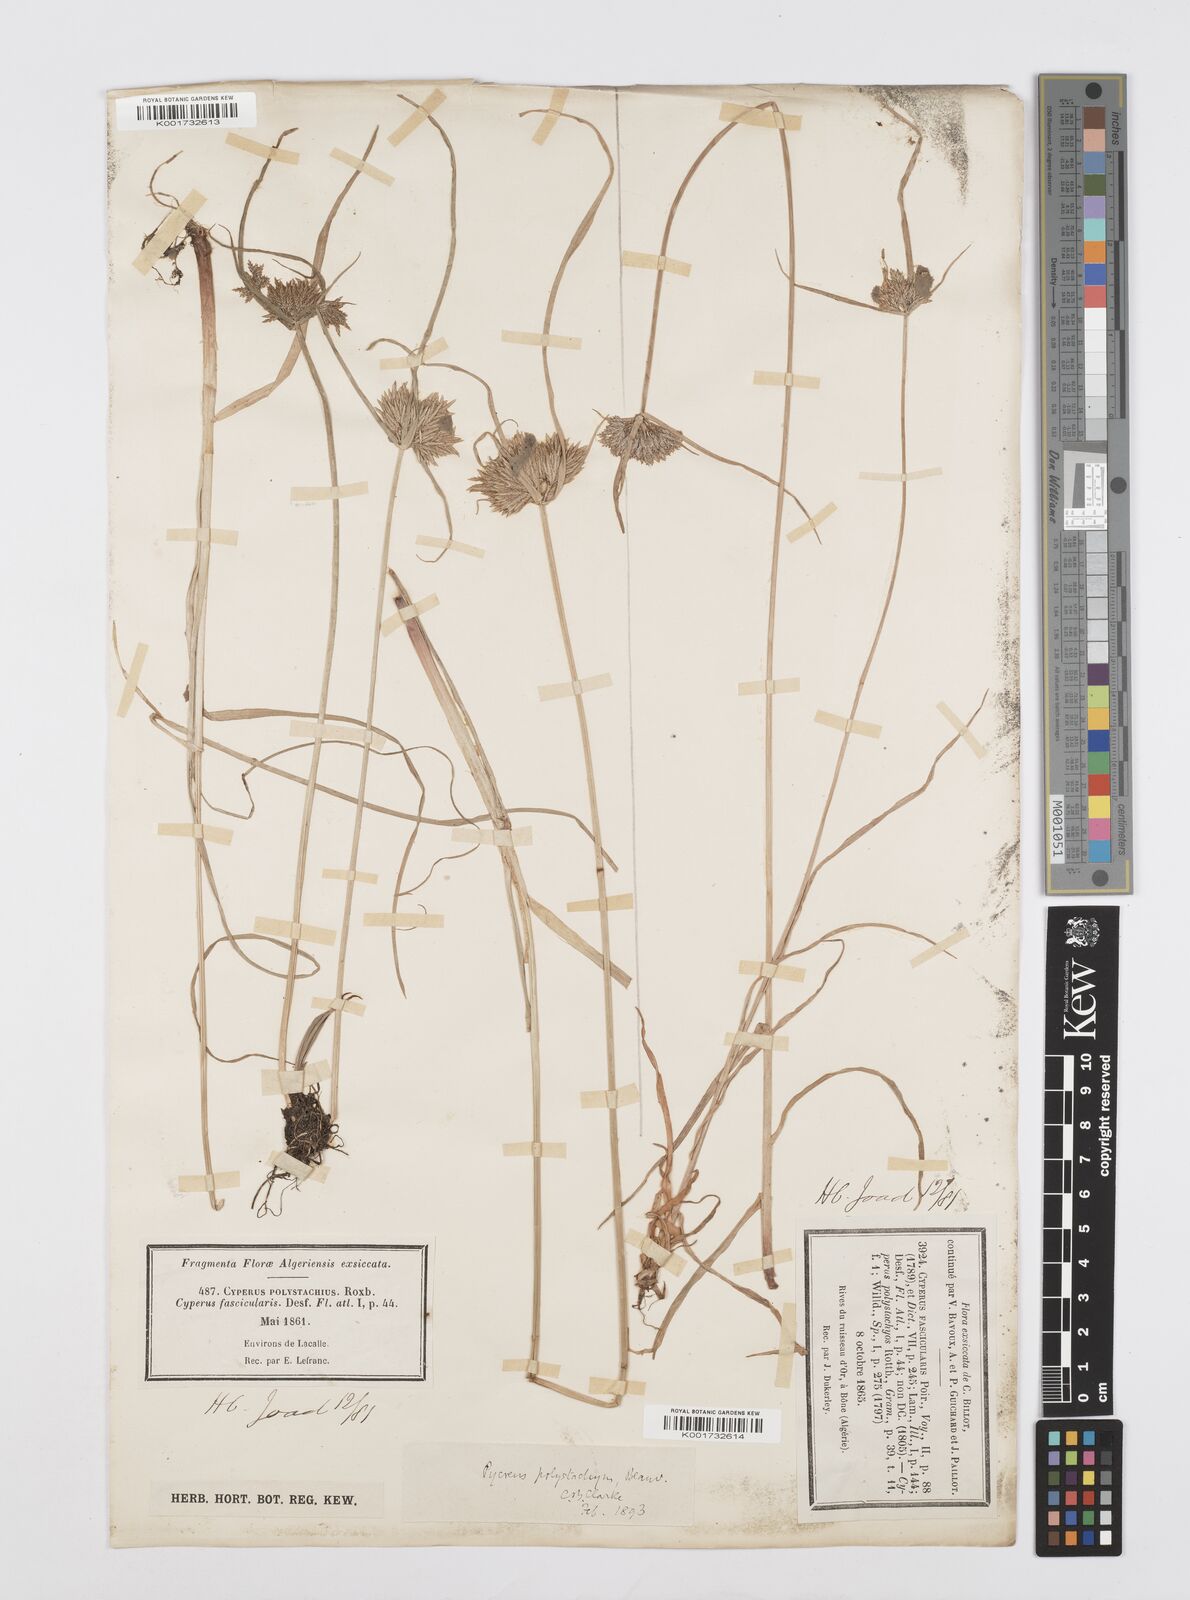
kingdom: Plantae
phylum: Tracheophyta
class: Liliopsida
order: Poales
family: Cyperaceae
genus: Cyperus
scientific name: Cyperus polystachyos
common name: Bunchy flat sedge
